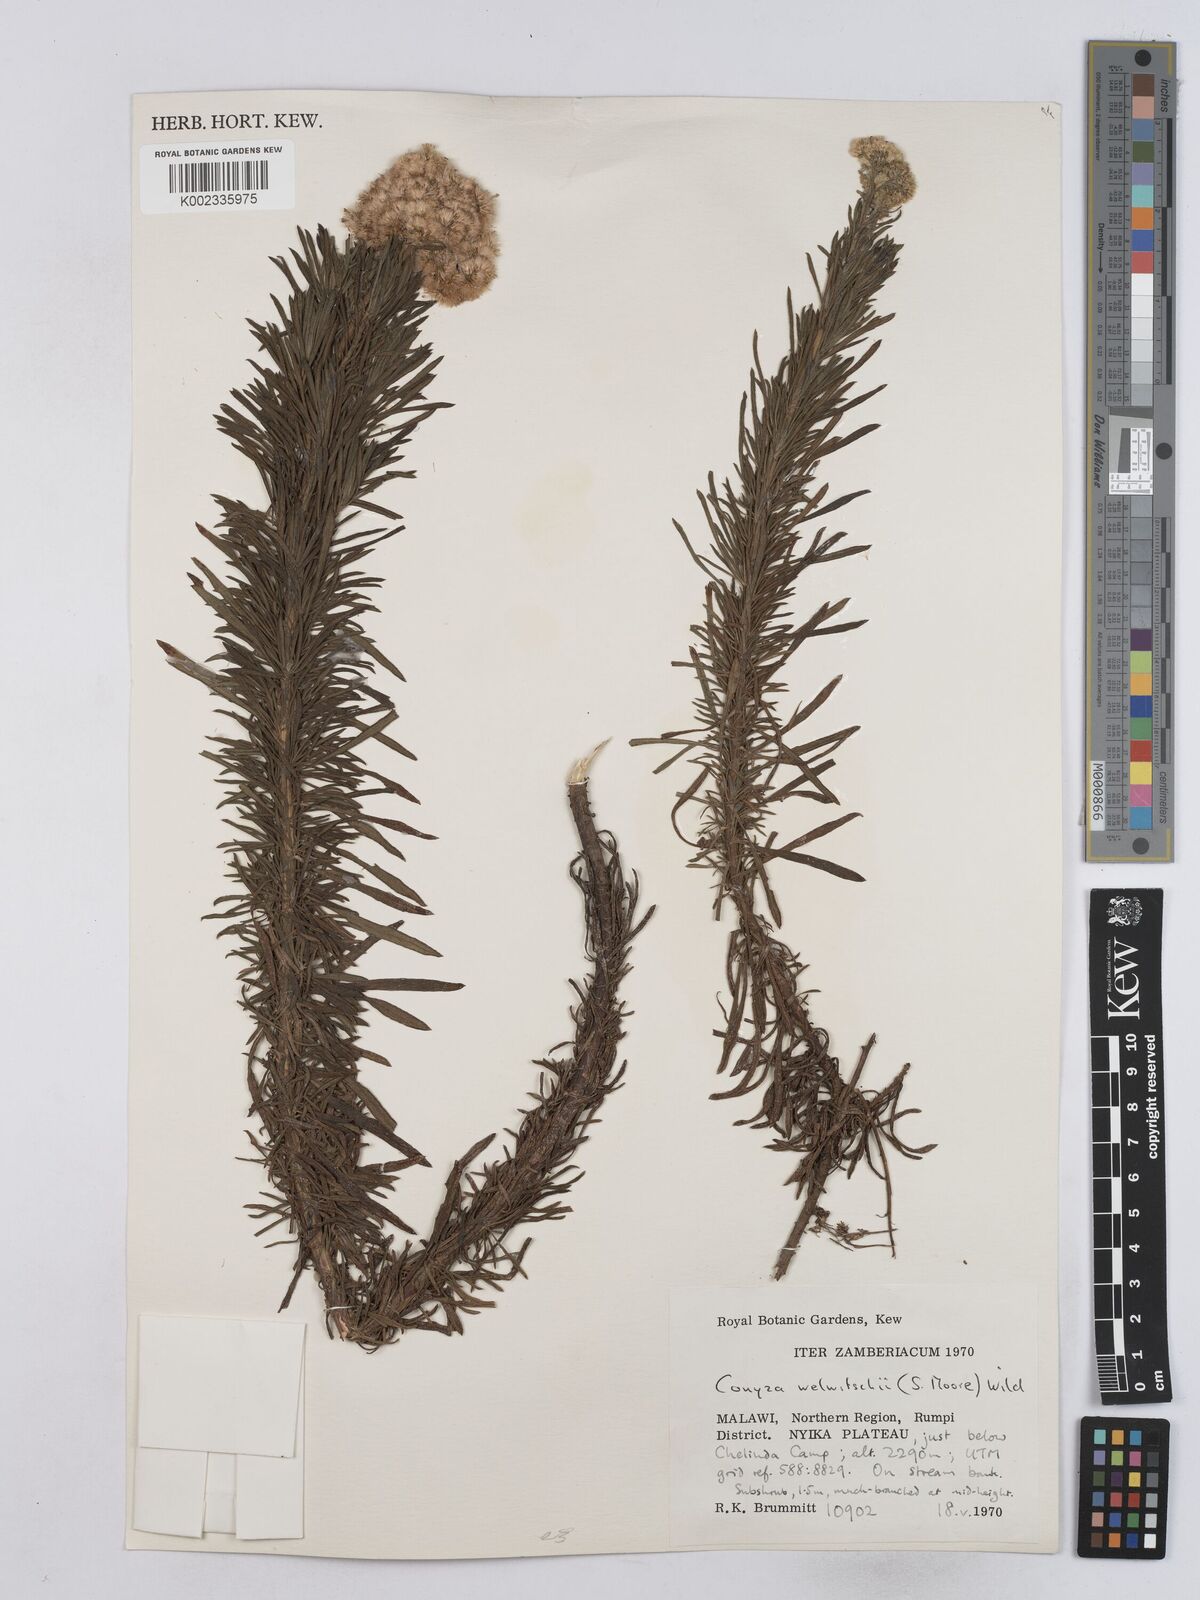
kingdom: Plantae
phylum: Tracheophyta
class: Magnoliopsida
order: Asterales
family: Asteraceae
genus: Nidorella
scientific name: Nidorella welwitschii
